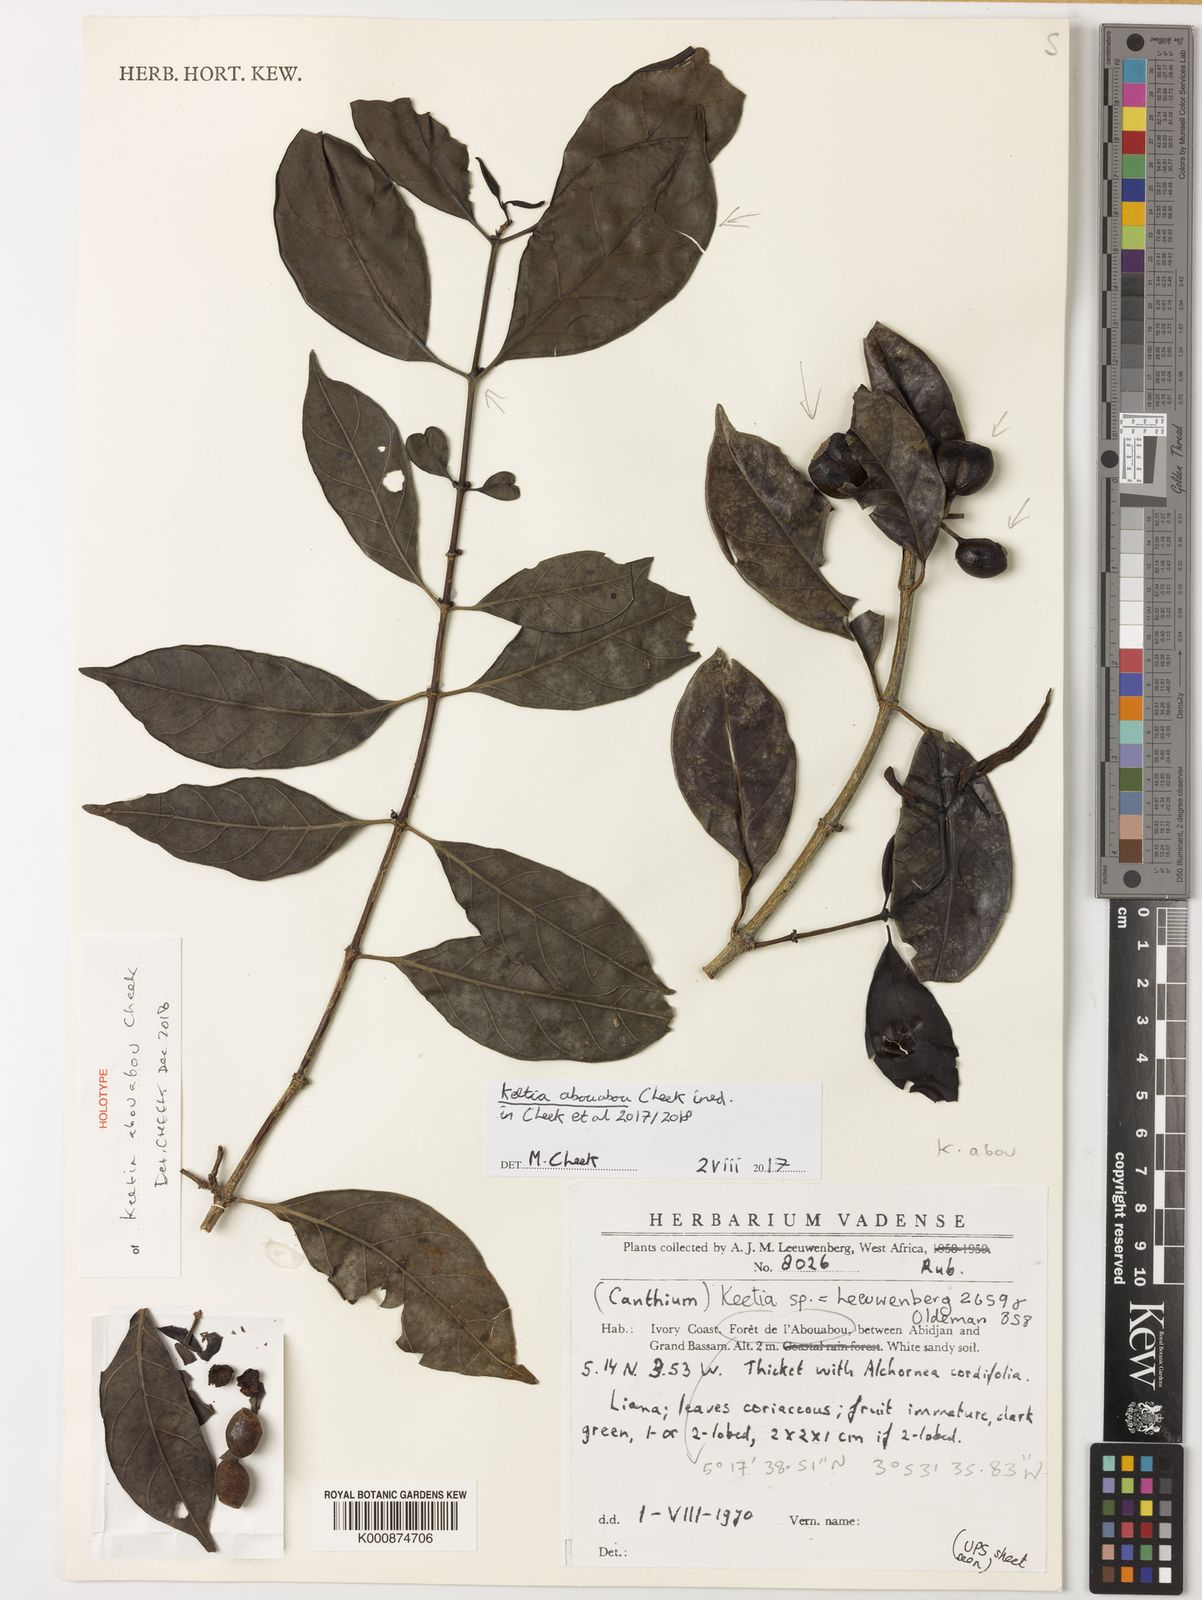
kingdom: Plantae
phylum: Tracheophyta
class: Magnoliopsida
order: Gentianales
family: Rubiaceae
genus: Keetia
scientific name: Keetia abouabou
